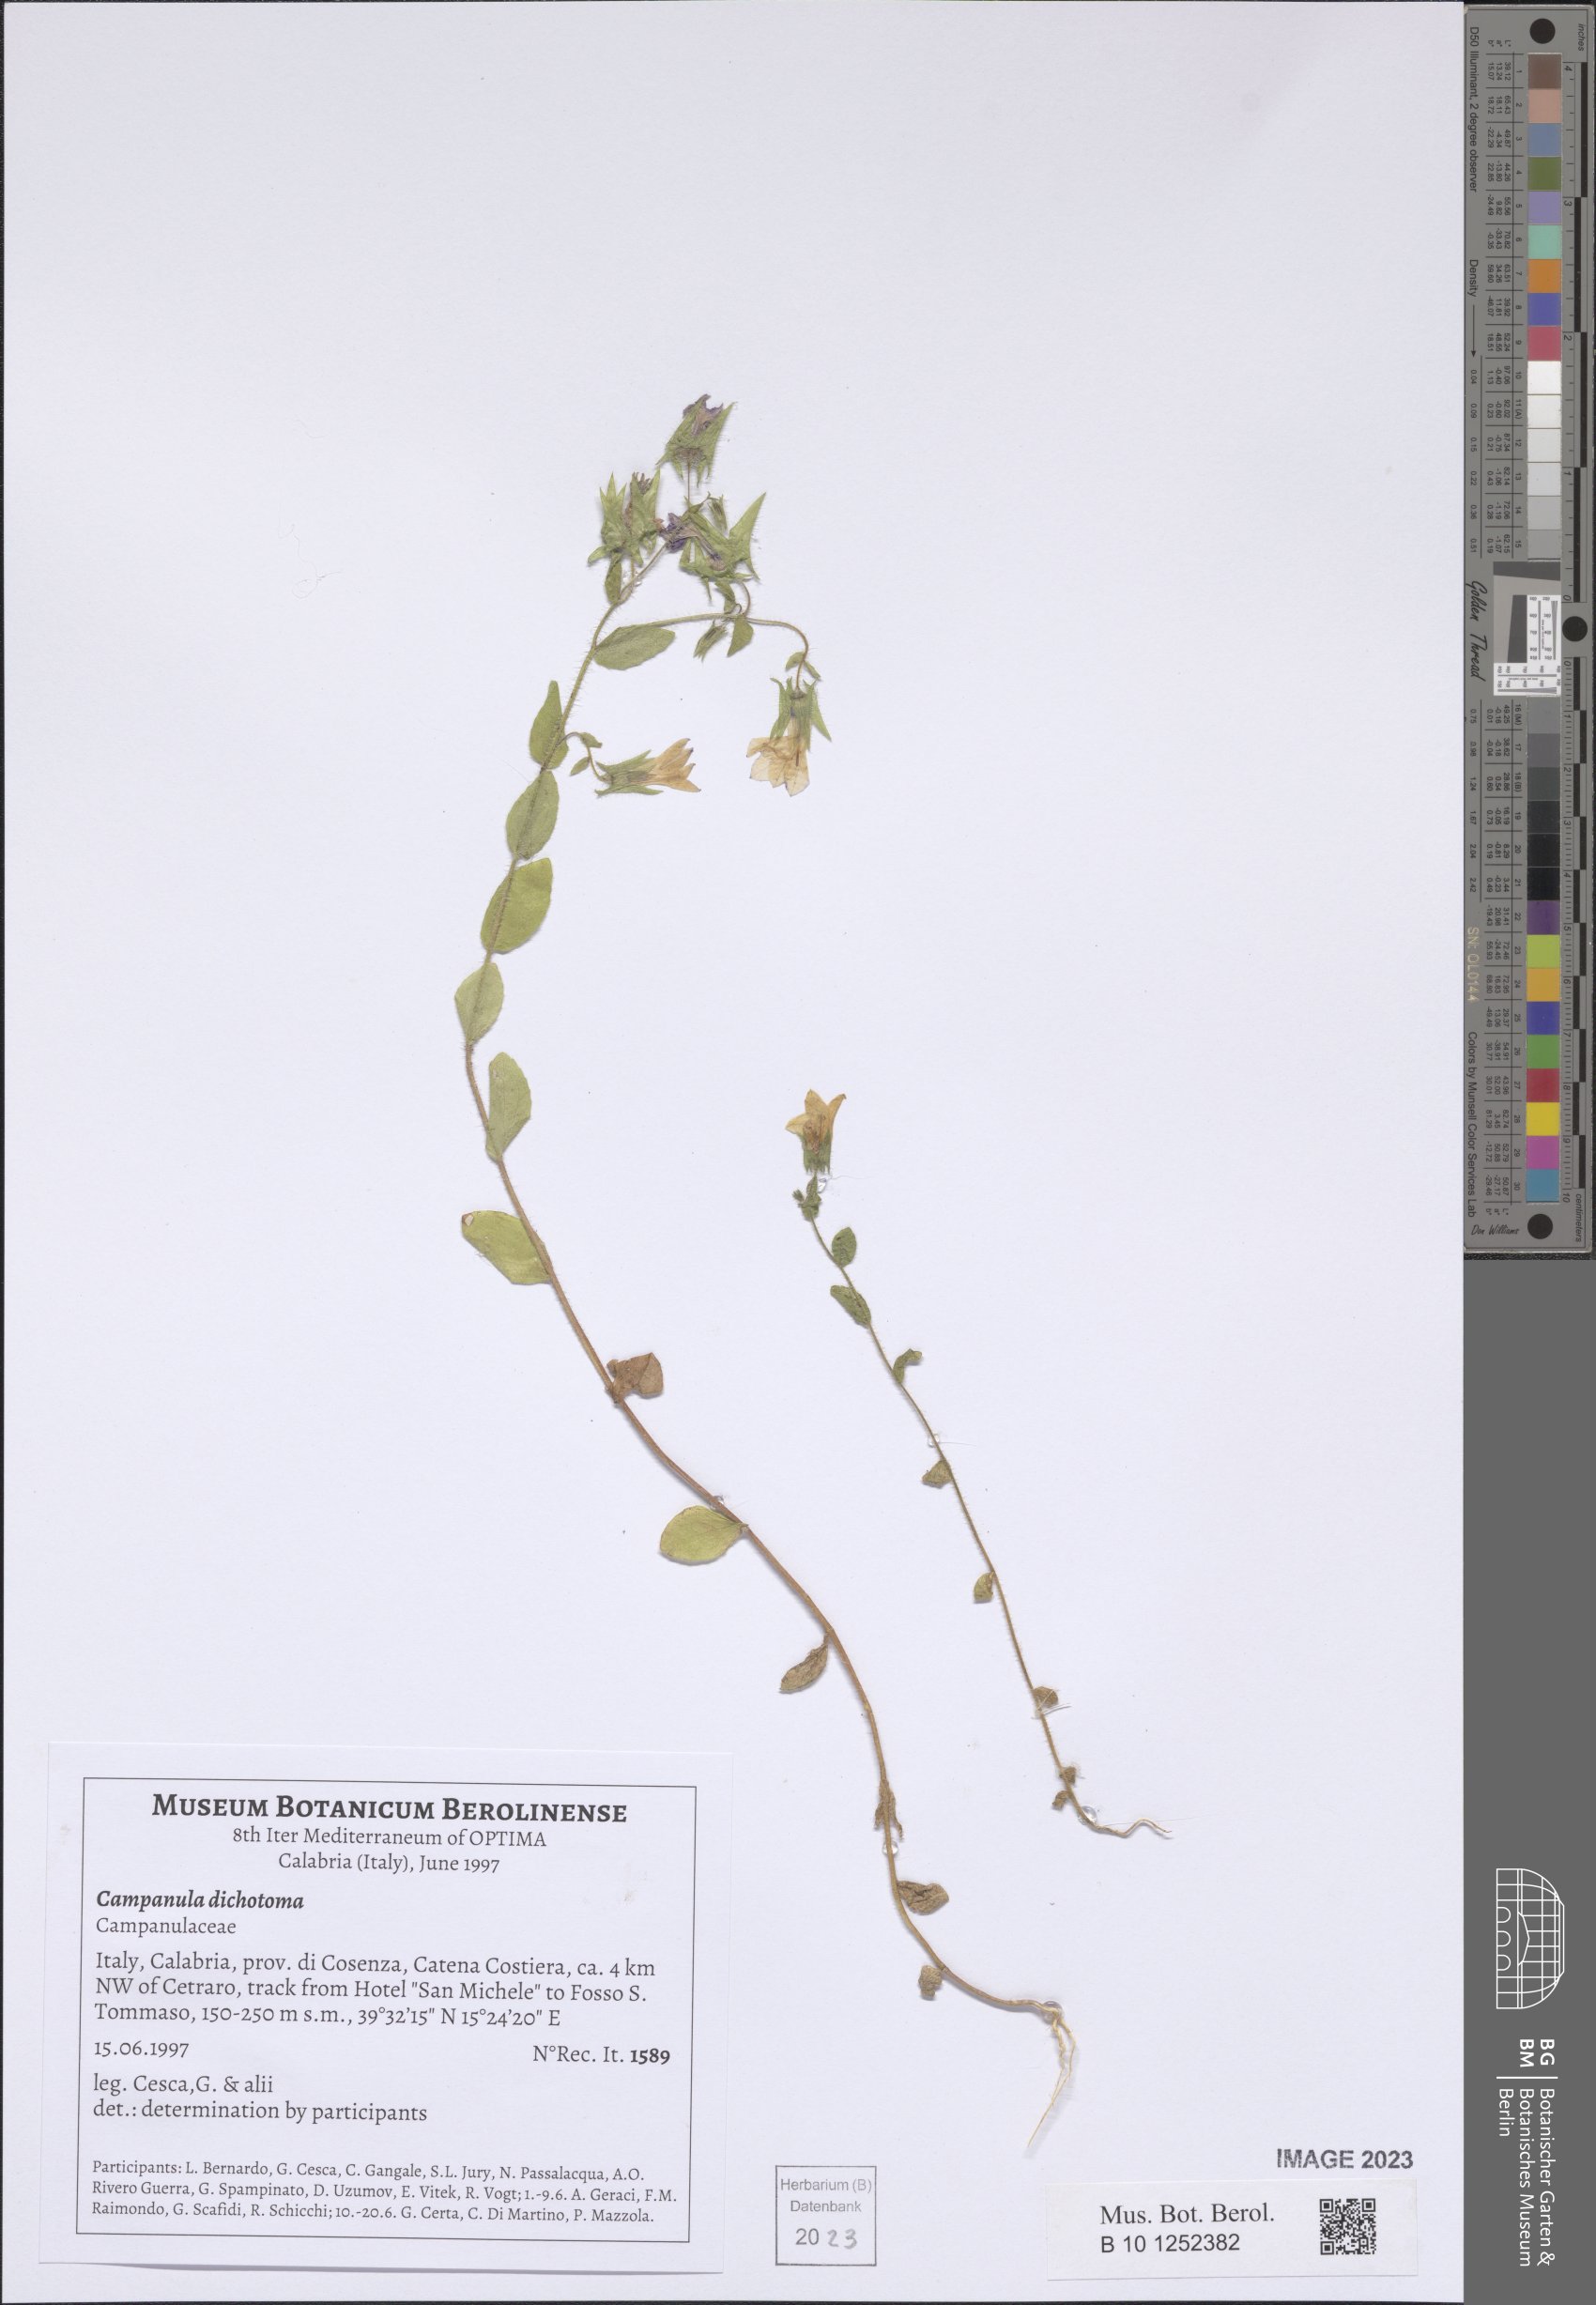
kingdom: Plantae
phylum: Tracheophyta
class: Magnoliopsida
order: Asterales
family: Campanulaceae
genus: Campanula
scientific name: Campanula dichotoma
